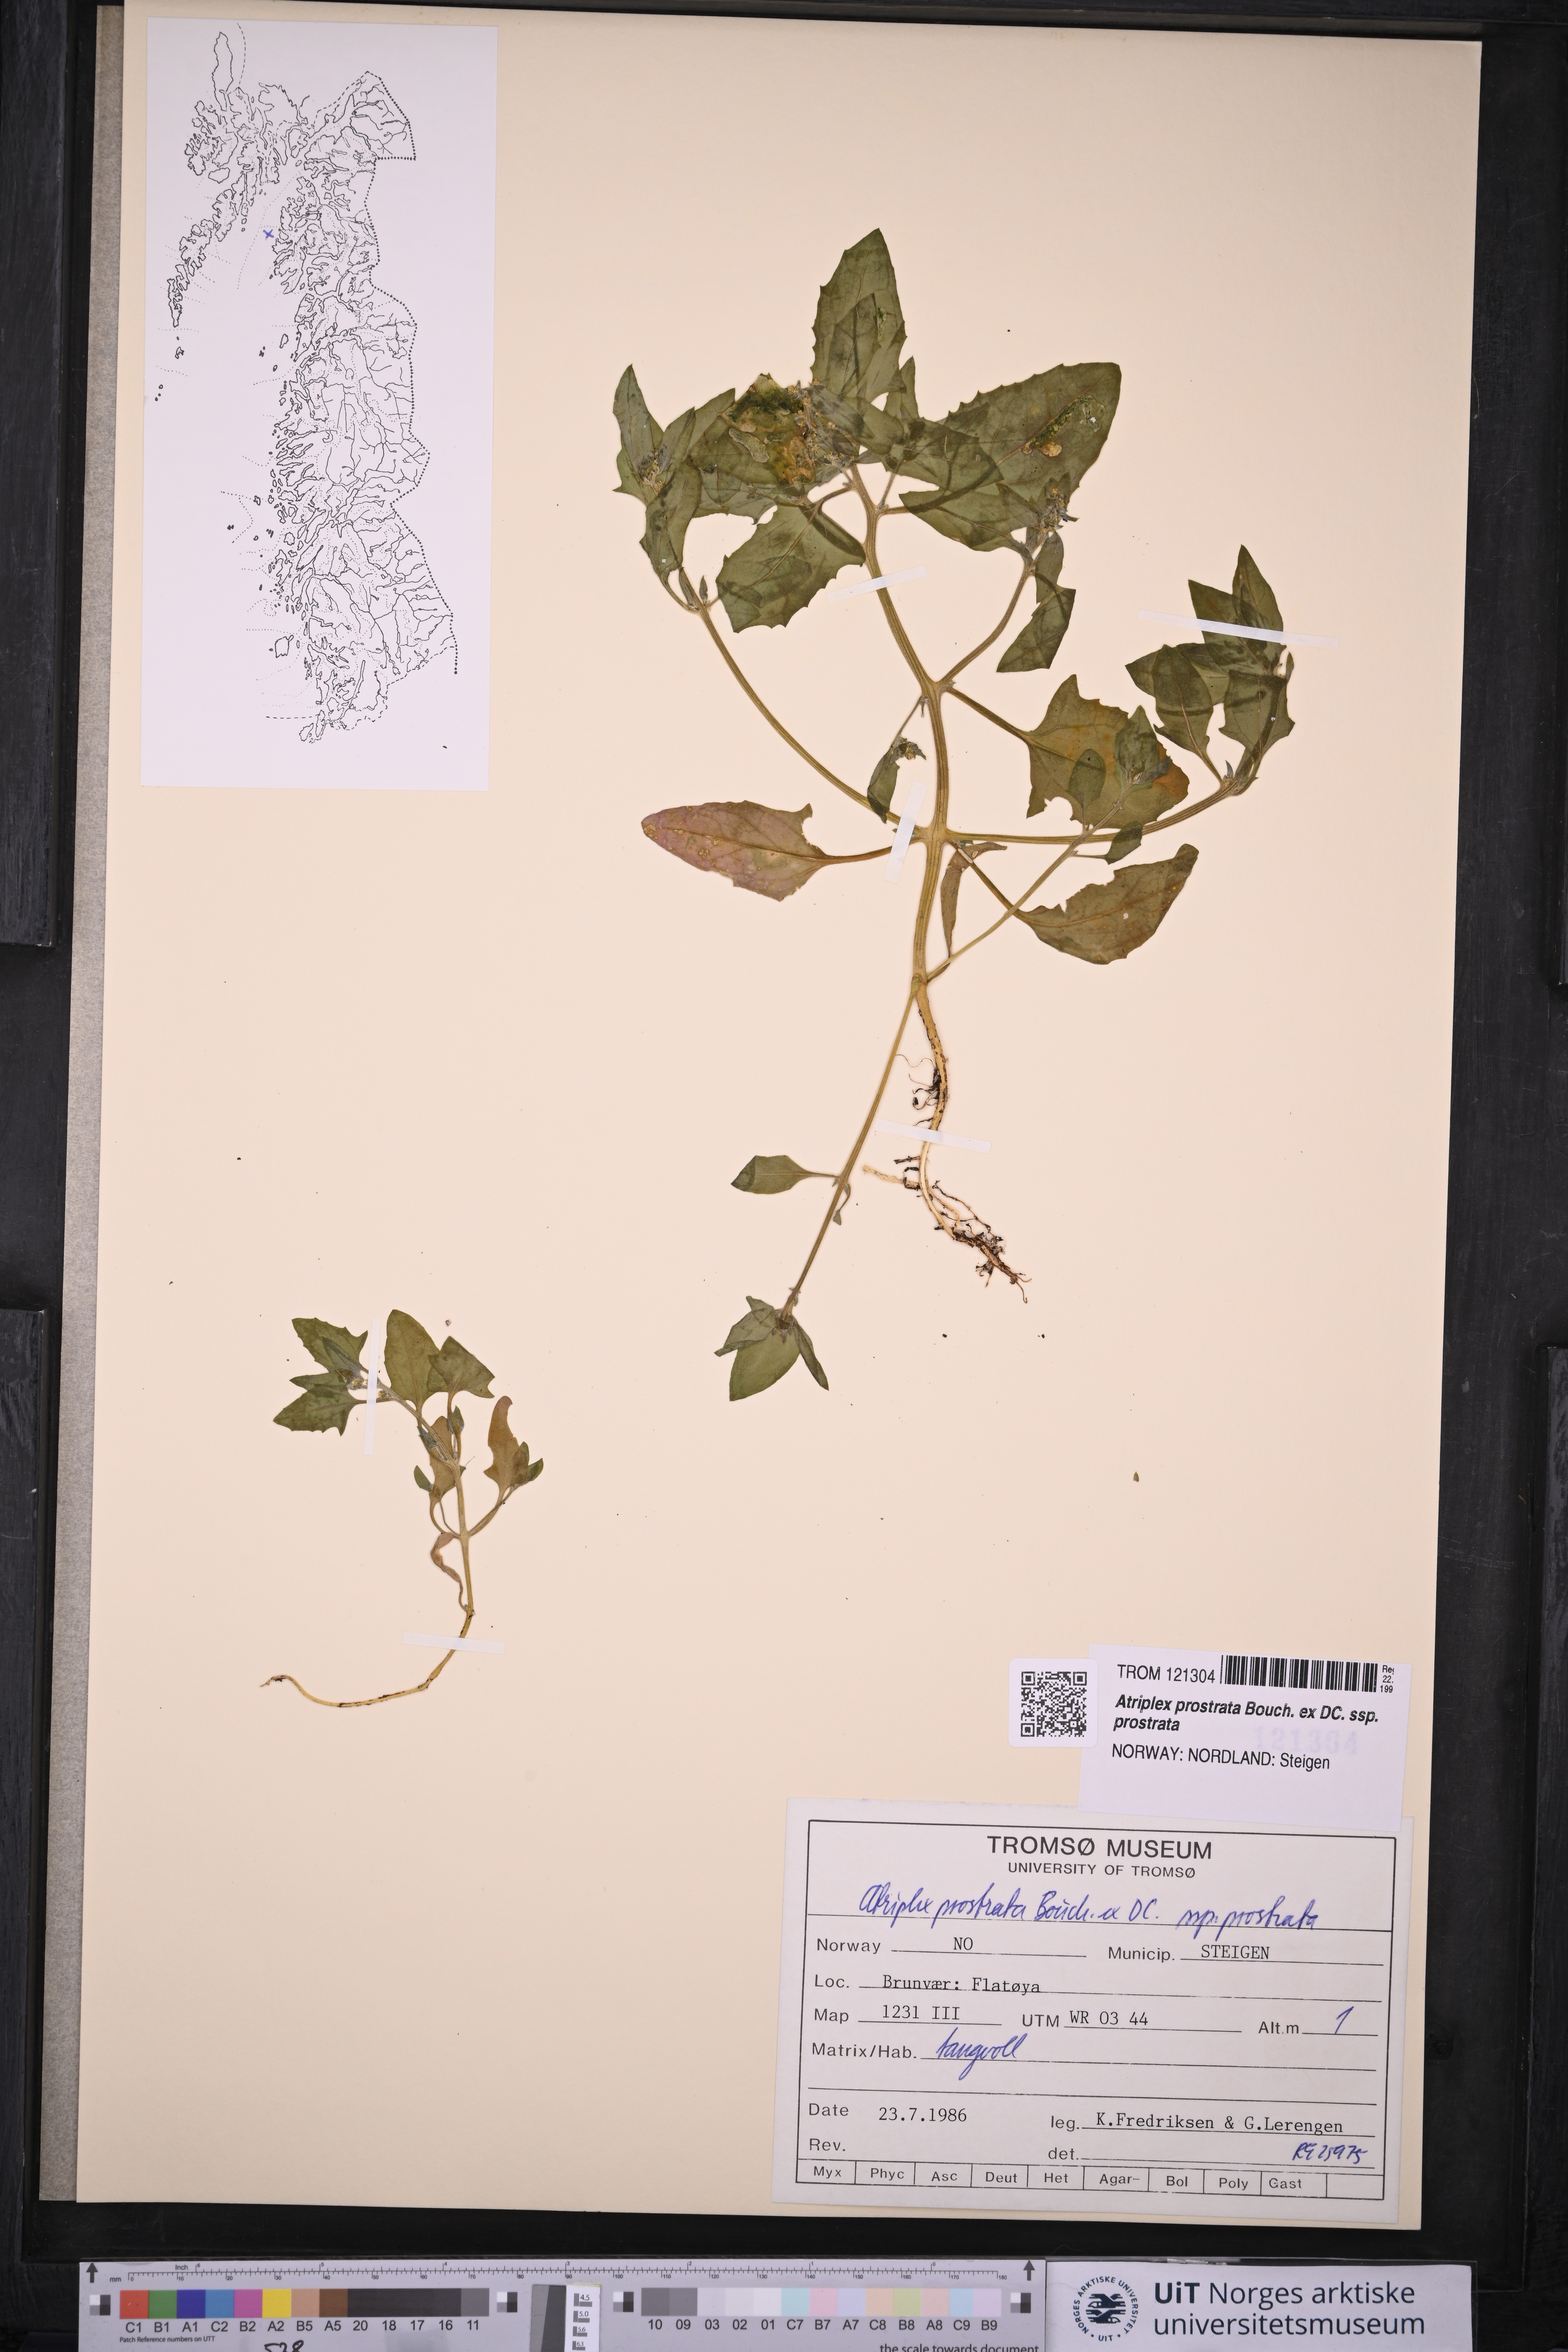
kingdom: Plantae
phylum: Tracheophyta
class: Magnoliopsida
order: Caryophyllales
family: Amaranthaceae
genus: Atriplex
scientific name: Atriplex prostrata
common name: Spear-leaved orache
